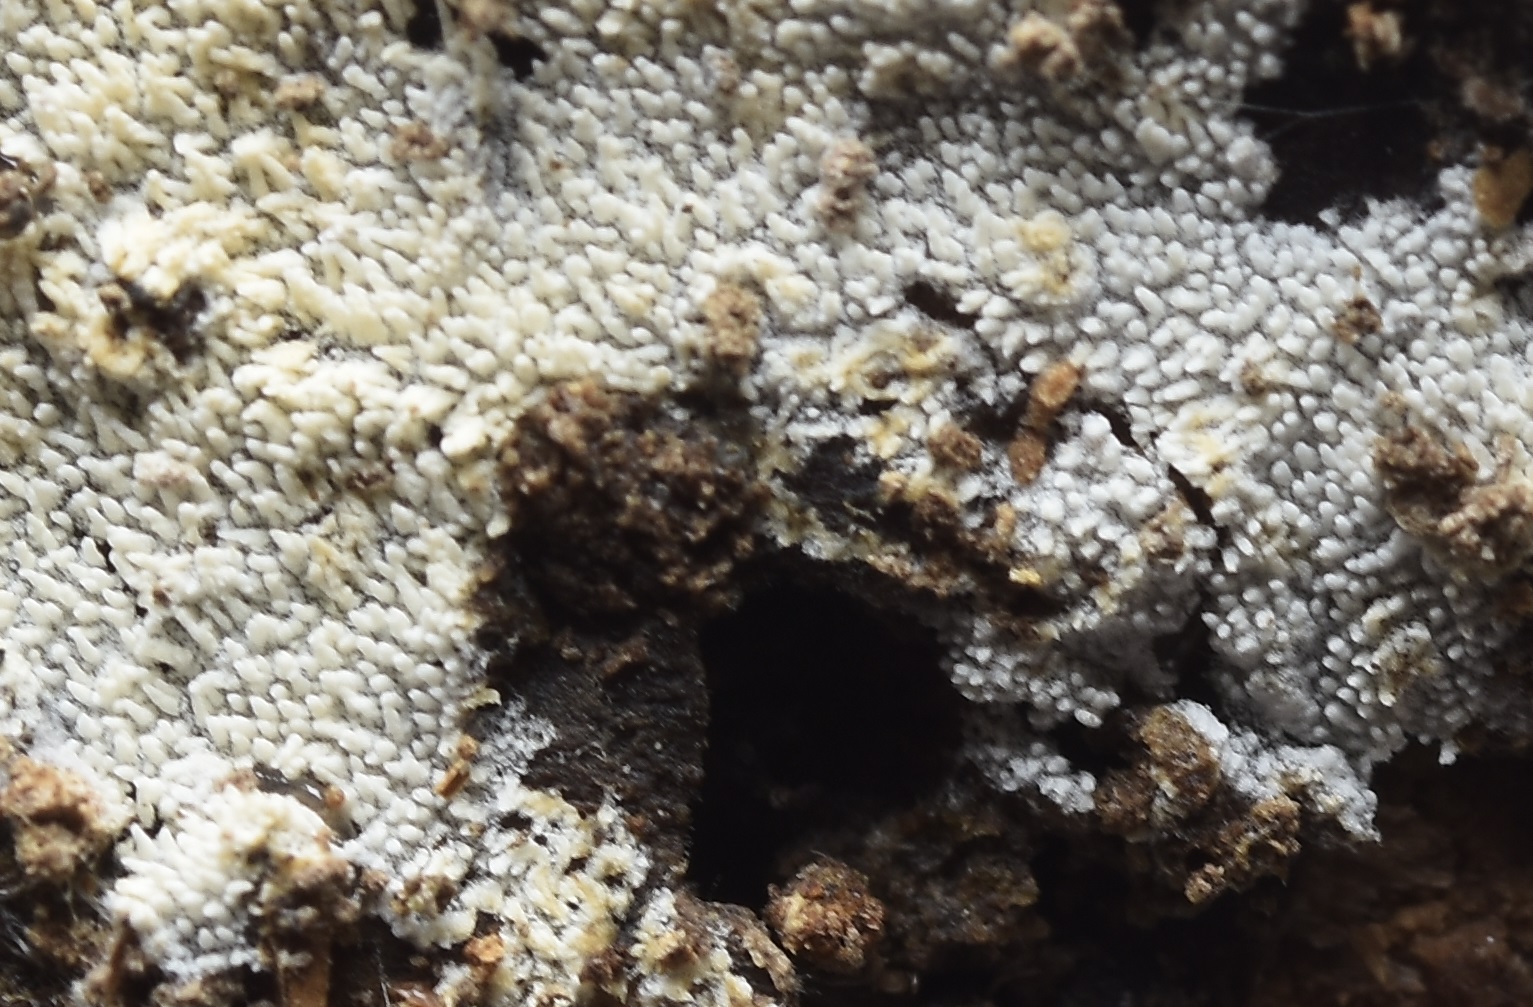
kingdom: Fungi
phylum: Basidiomycota
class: Agaricomycetes
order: Trechisporales
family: Sistotremataceae
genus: Trechispora
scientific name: Trechispora farinacea
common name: pigget vathinde
